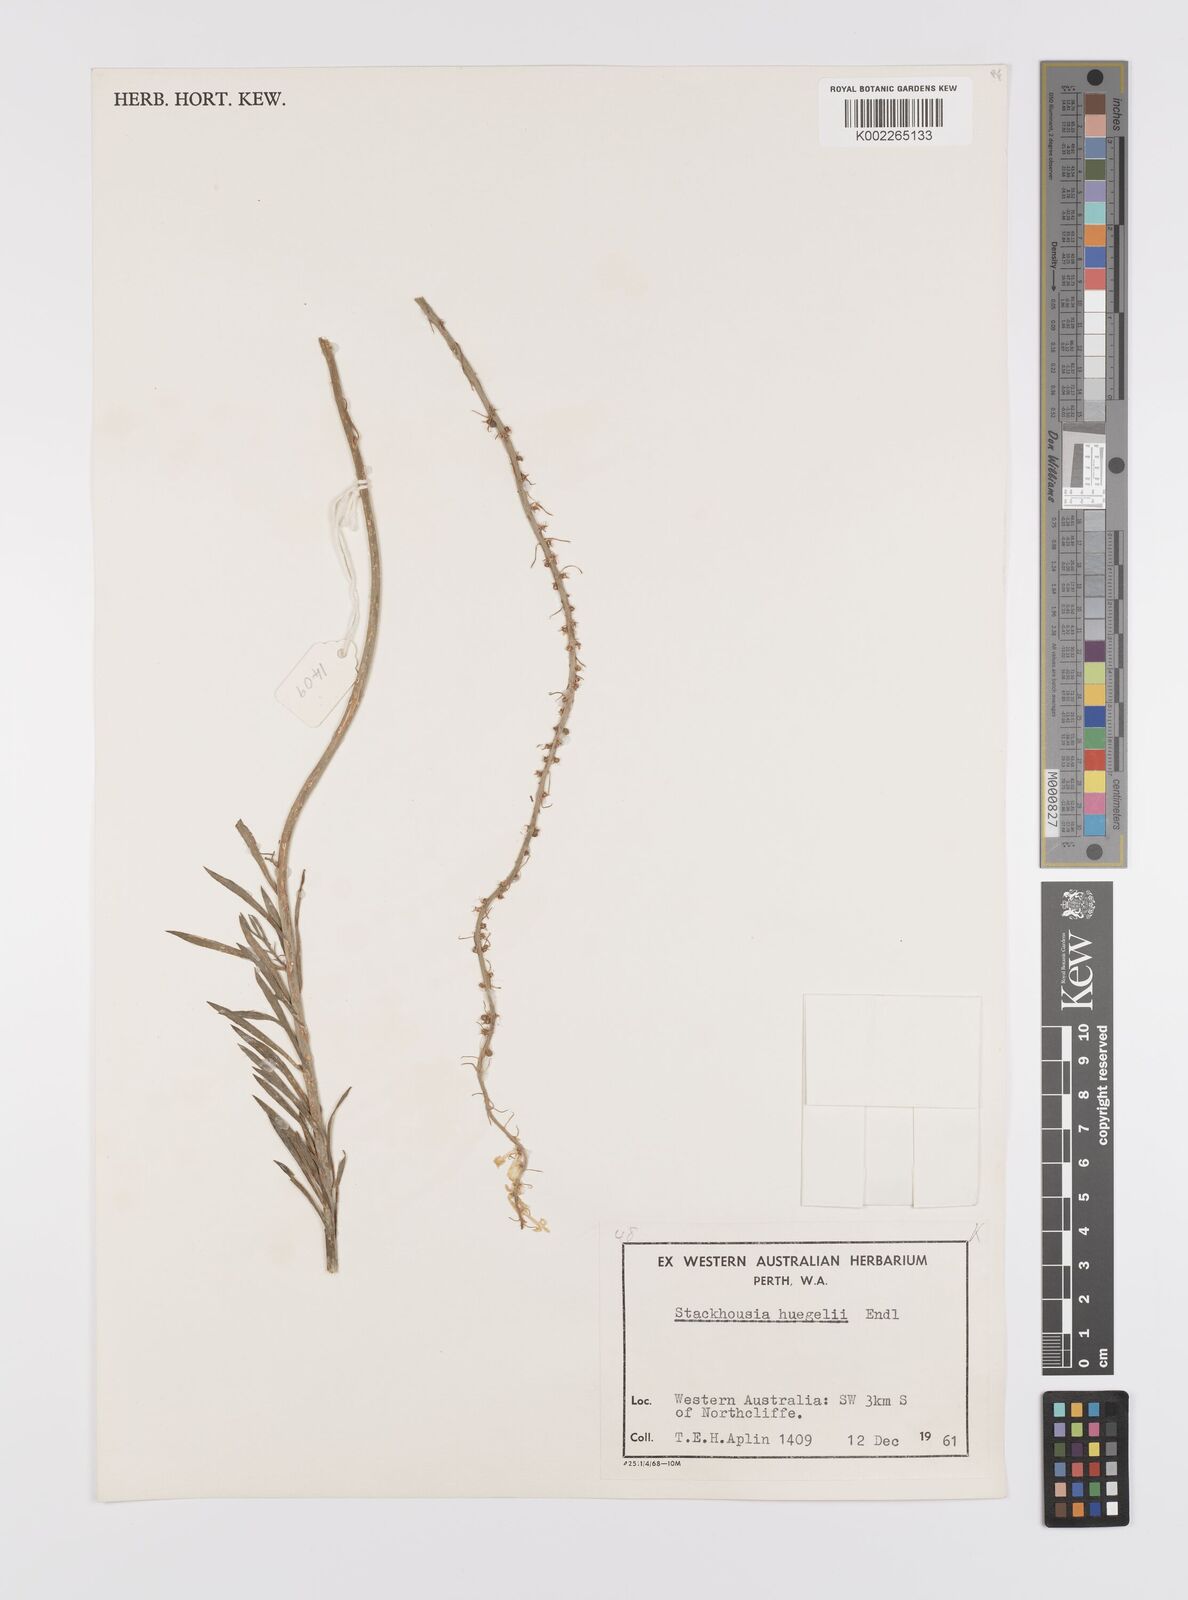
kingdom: Plantae
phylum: Tracheophyta
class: Magnoliopsida
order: Celastrales
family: Celastraceae
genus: Stackhousia
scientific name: Stackhousia monogyna
